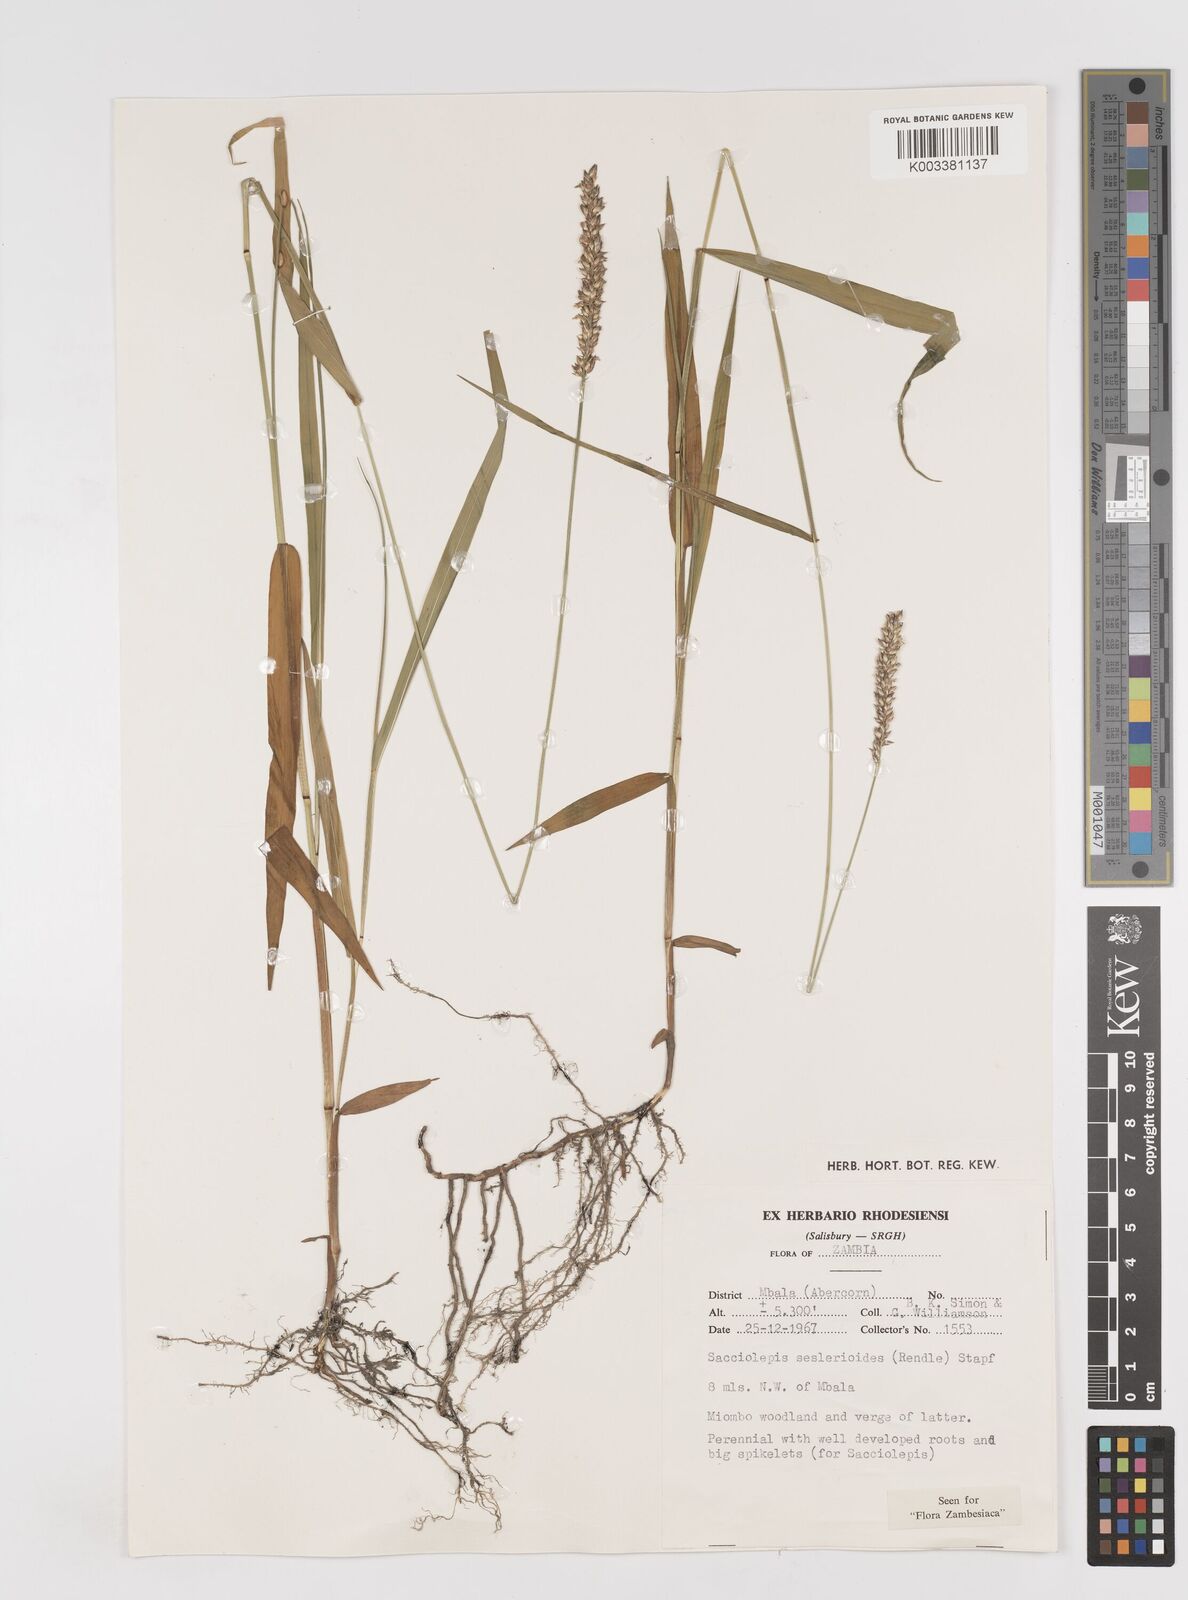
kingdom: Plantae
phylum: Tracheophyta
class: Liliopsida
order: Poales
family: Poaceae
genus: Sacciolepis
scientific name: Sacciolepis seslerioides
